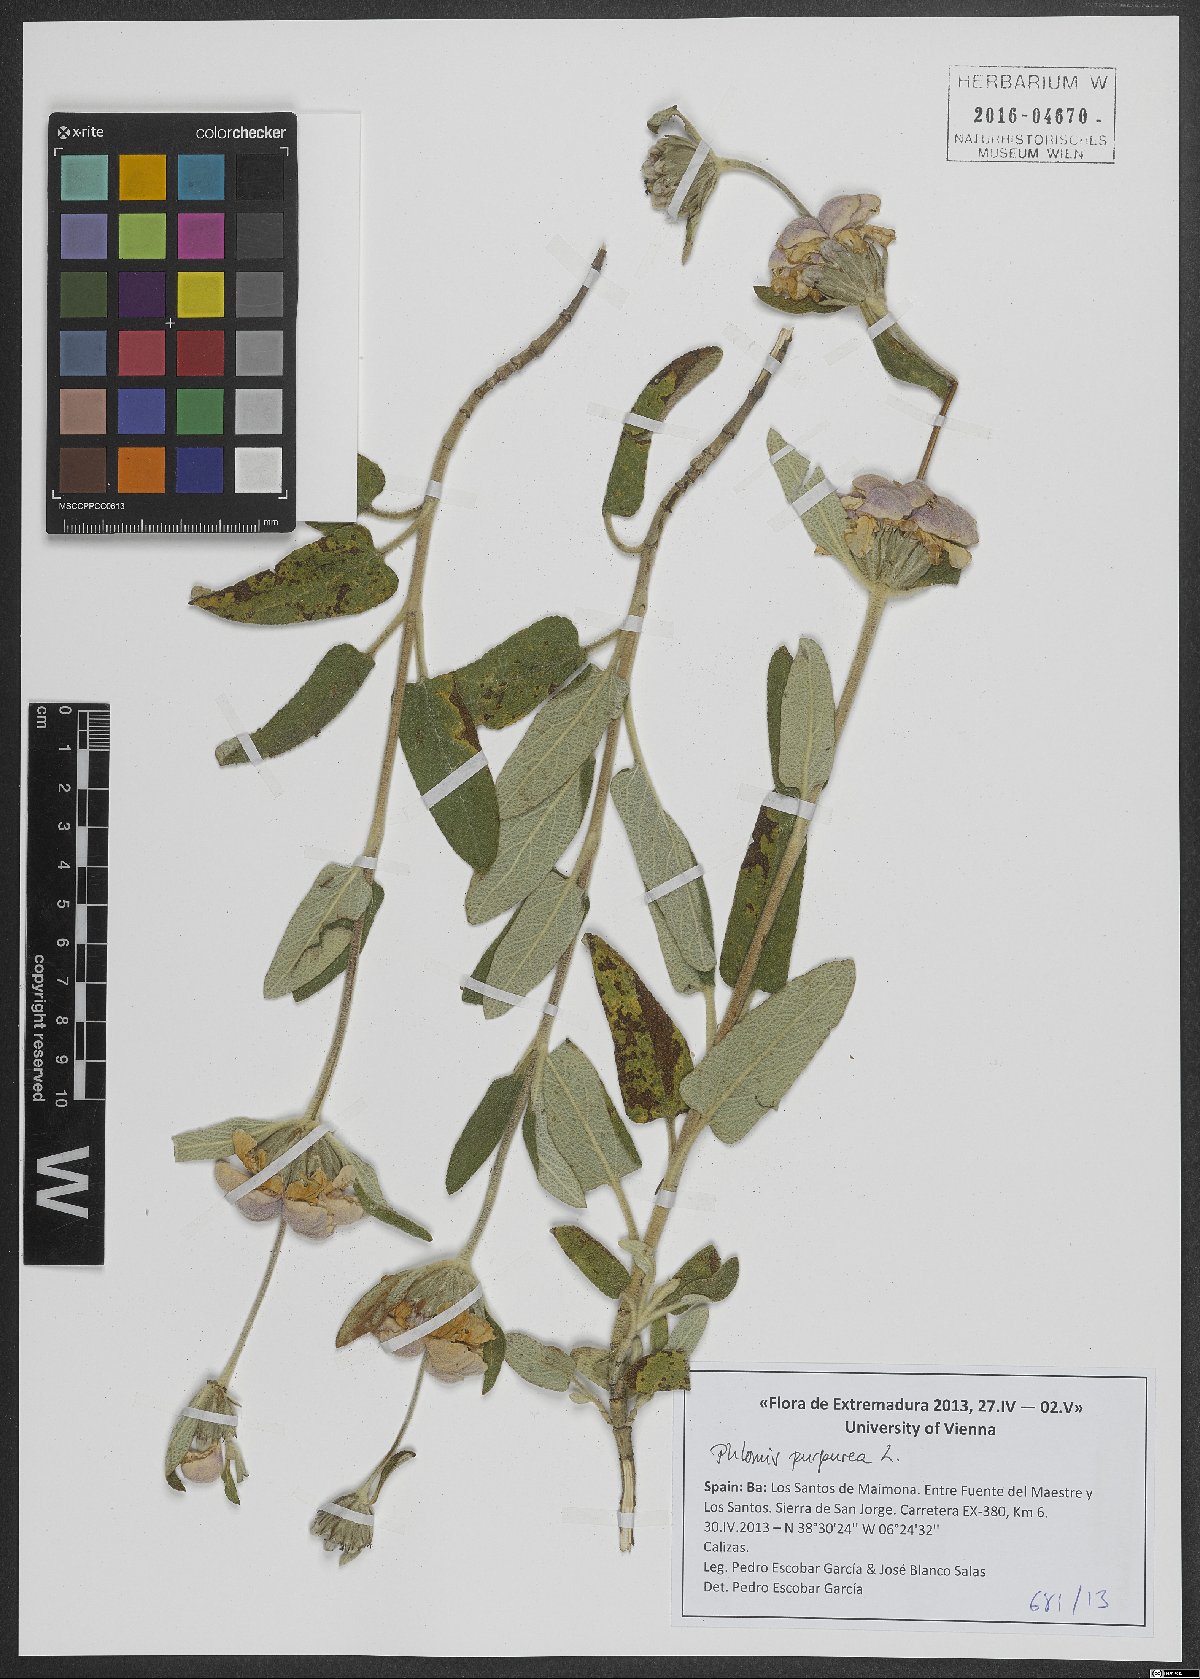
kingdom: Plantae
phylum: Tracheophyta
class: Magnoliopsida
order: Lamiales
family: Lamiaceae
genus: Phlomis
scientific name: Phlomis purpurea
